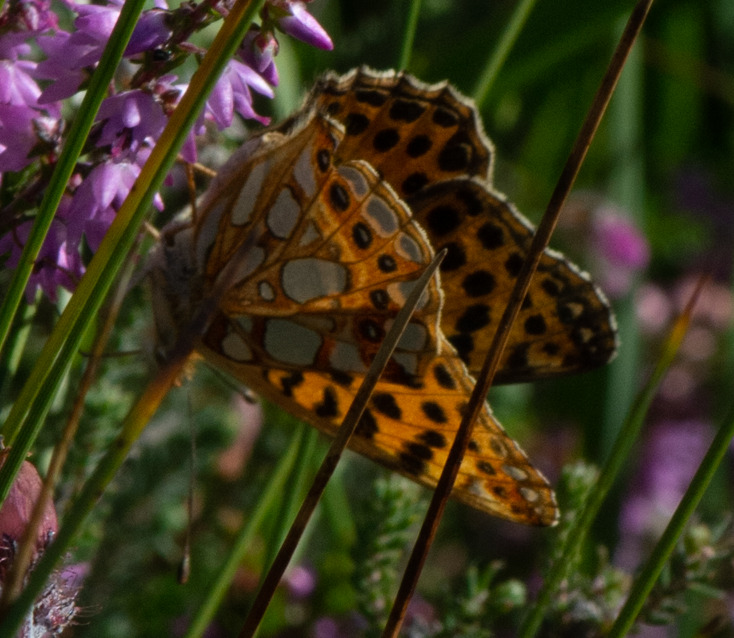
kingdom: Animalia
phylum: Arthropoda
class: Insecta
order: Lepidoptera
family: Nymphalidae
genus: Issoria
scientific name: Issoria lathonia
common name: Storplettet perlemorsommerfugl
